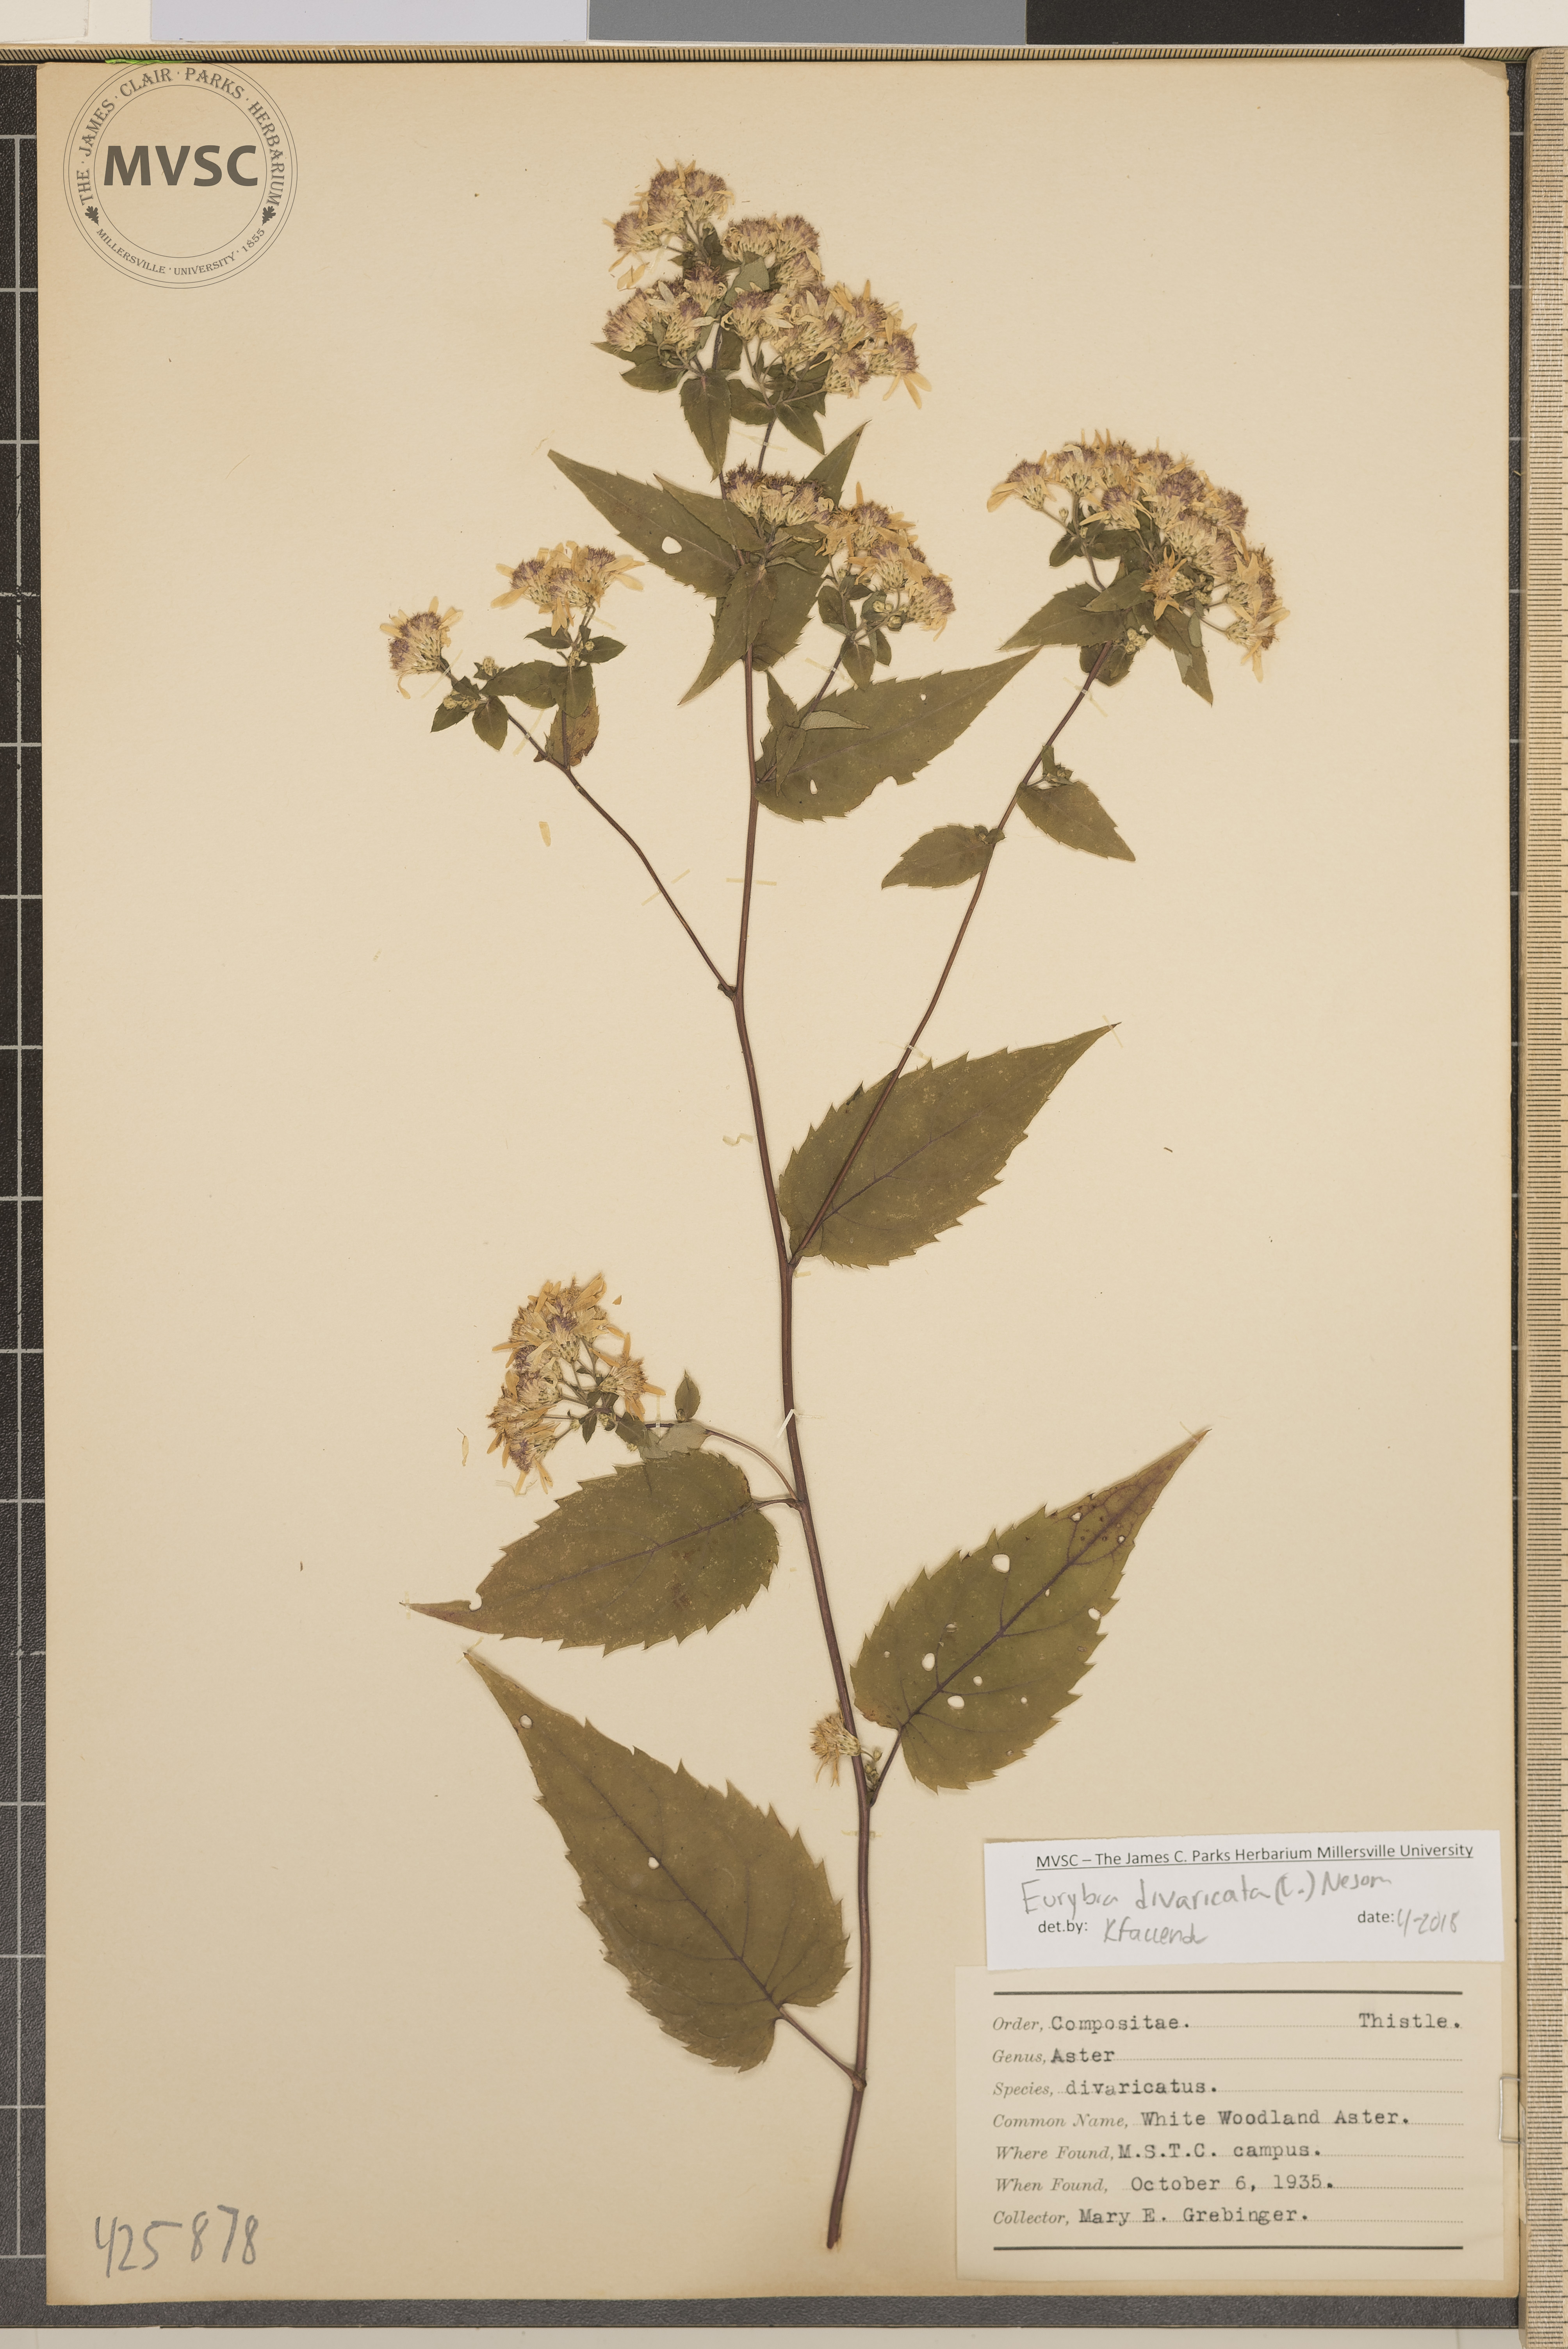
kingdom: Plantae
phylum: Tracheophyta
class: Magnoliopsida
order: Asterales
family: Asteraceae
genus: Eurybia
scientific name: Eurybia divaricata
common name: White woodland aster
